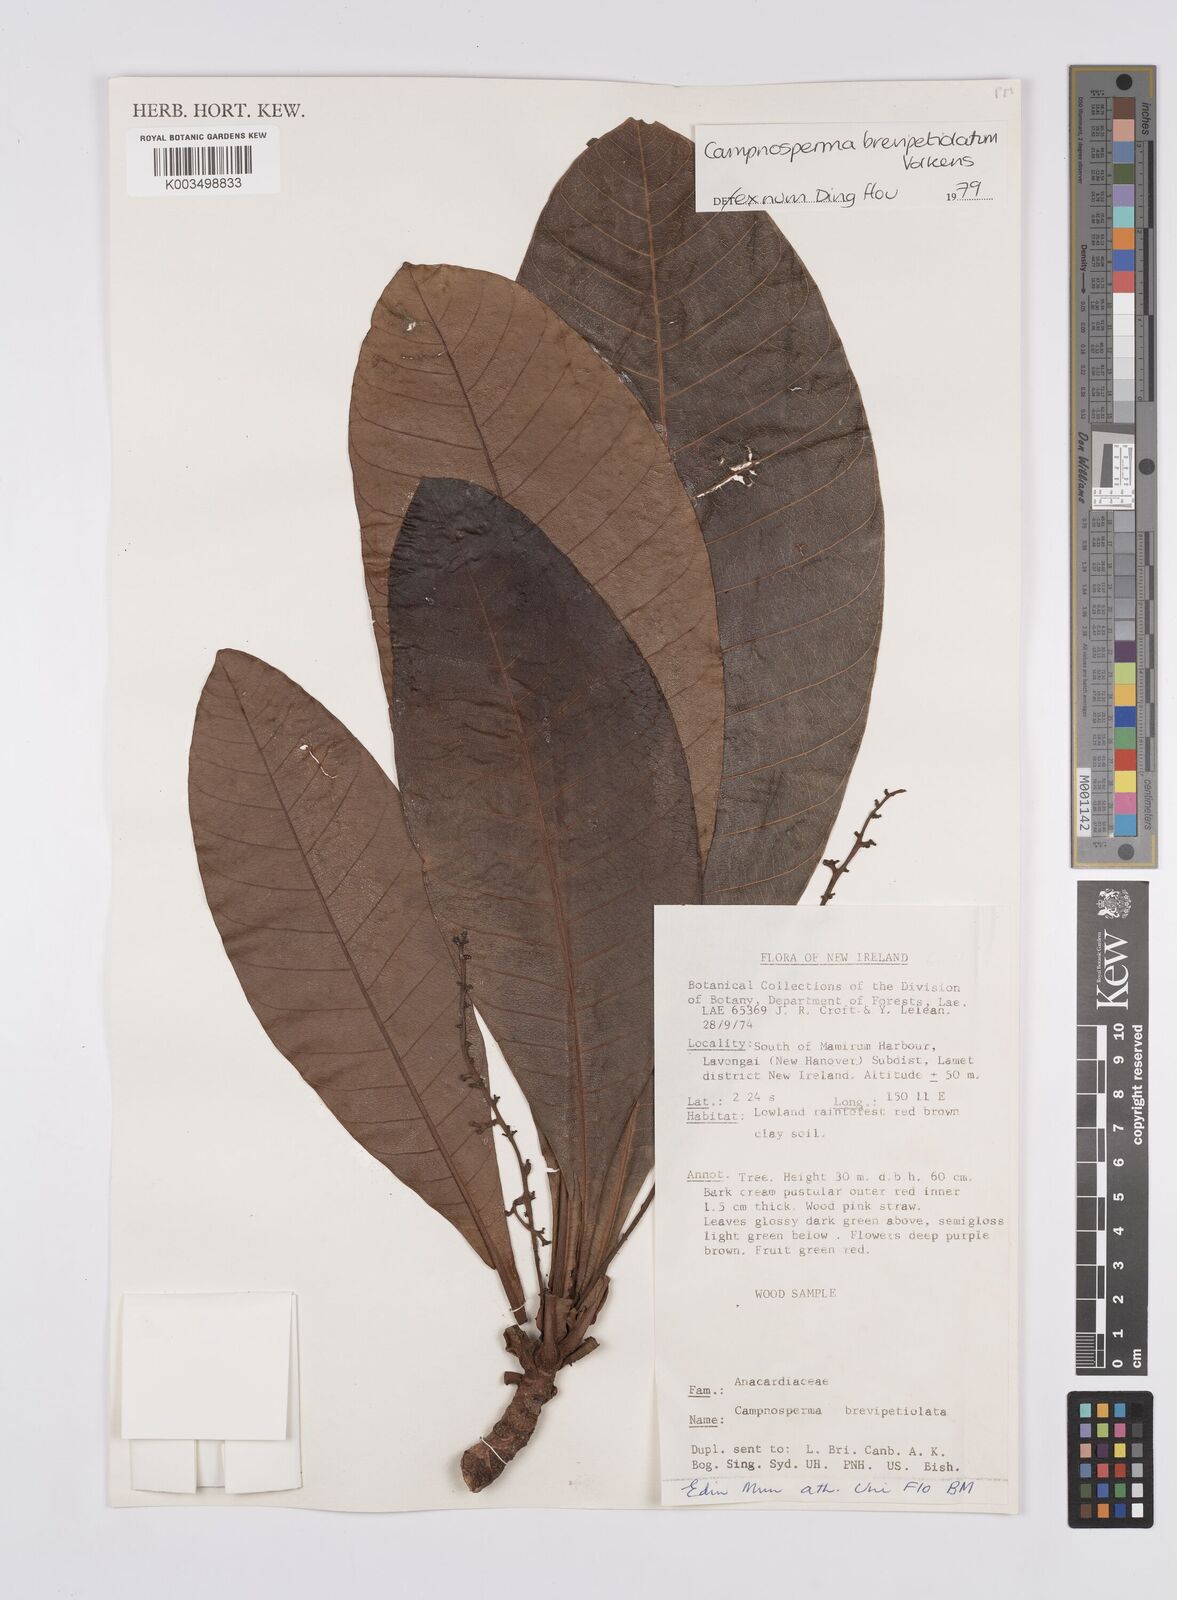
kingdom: Plantae
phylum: Tracheophyta
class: Magnoliopsida
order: Sapindales
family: Anacardiaceae
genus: Campnosperma
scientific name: Campnosperma brevipetiolatum
